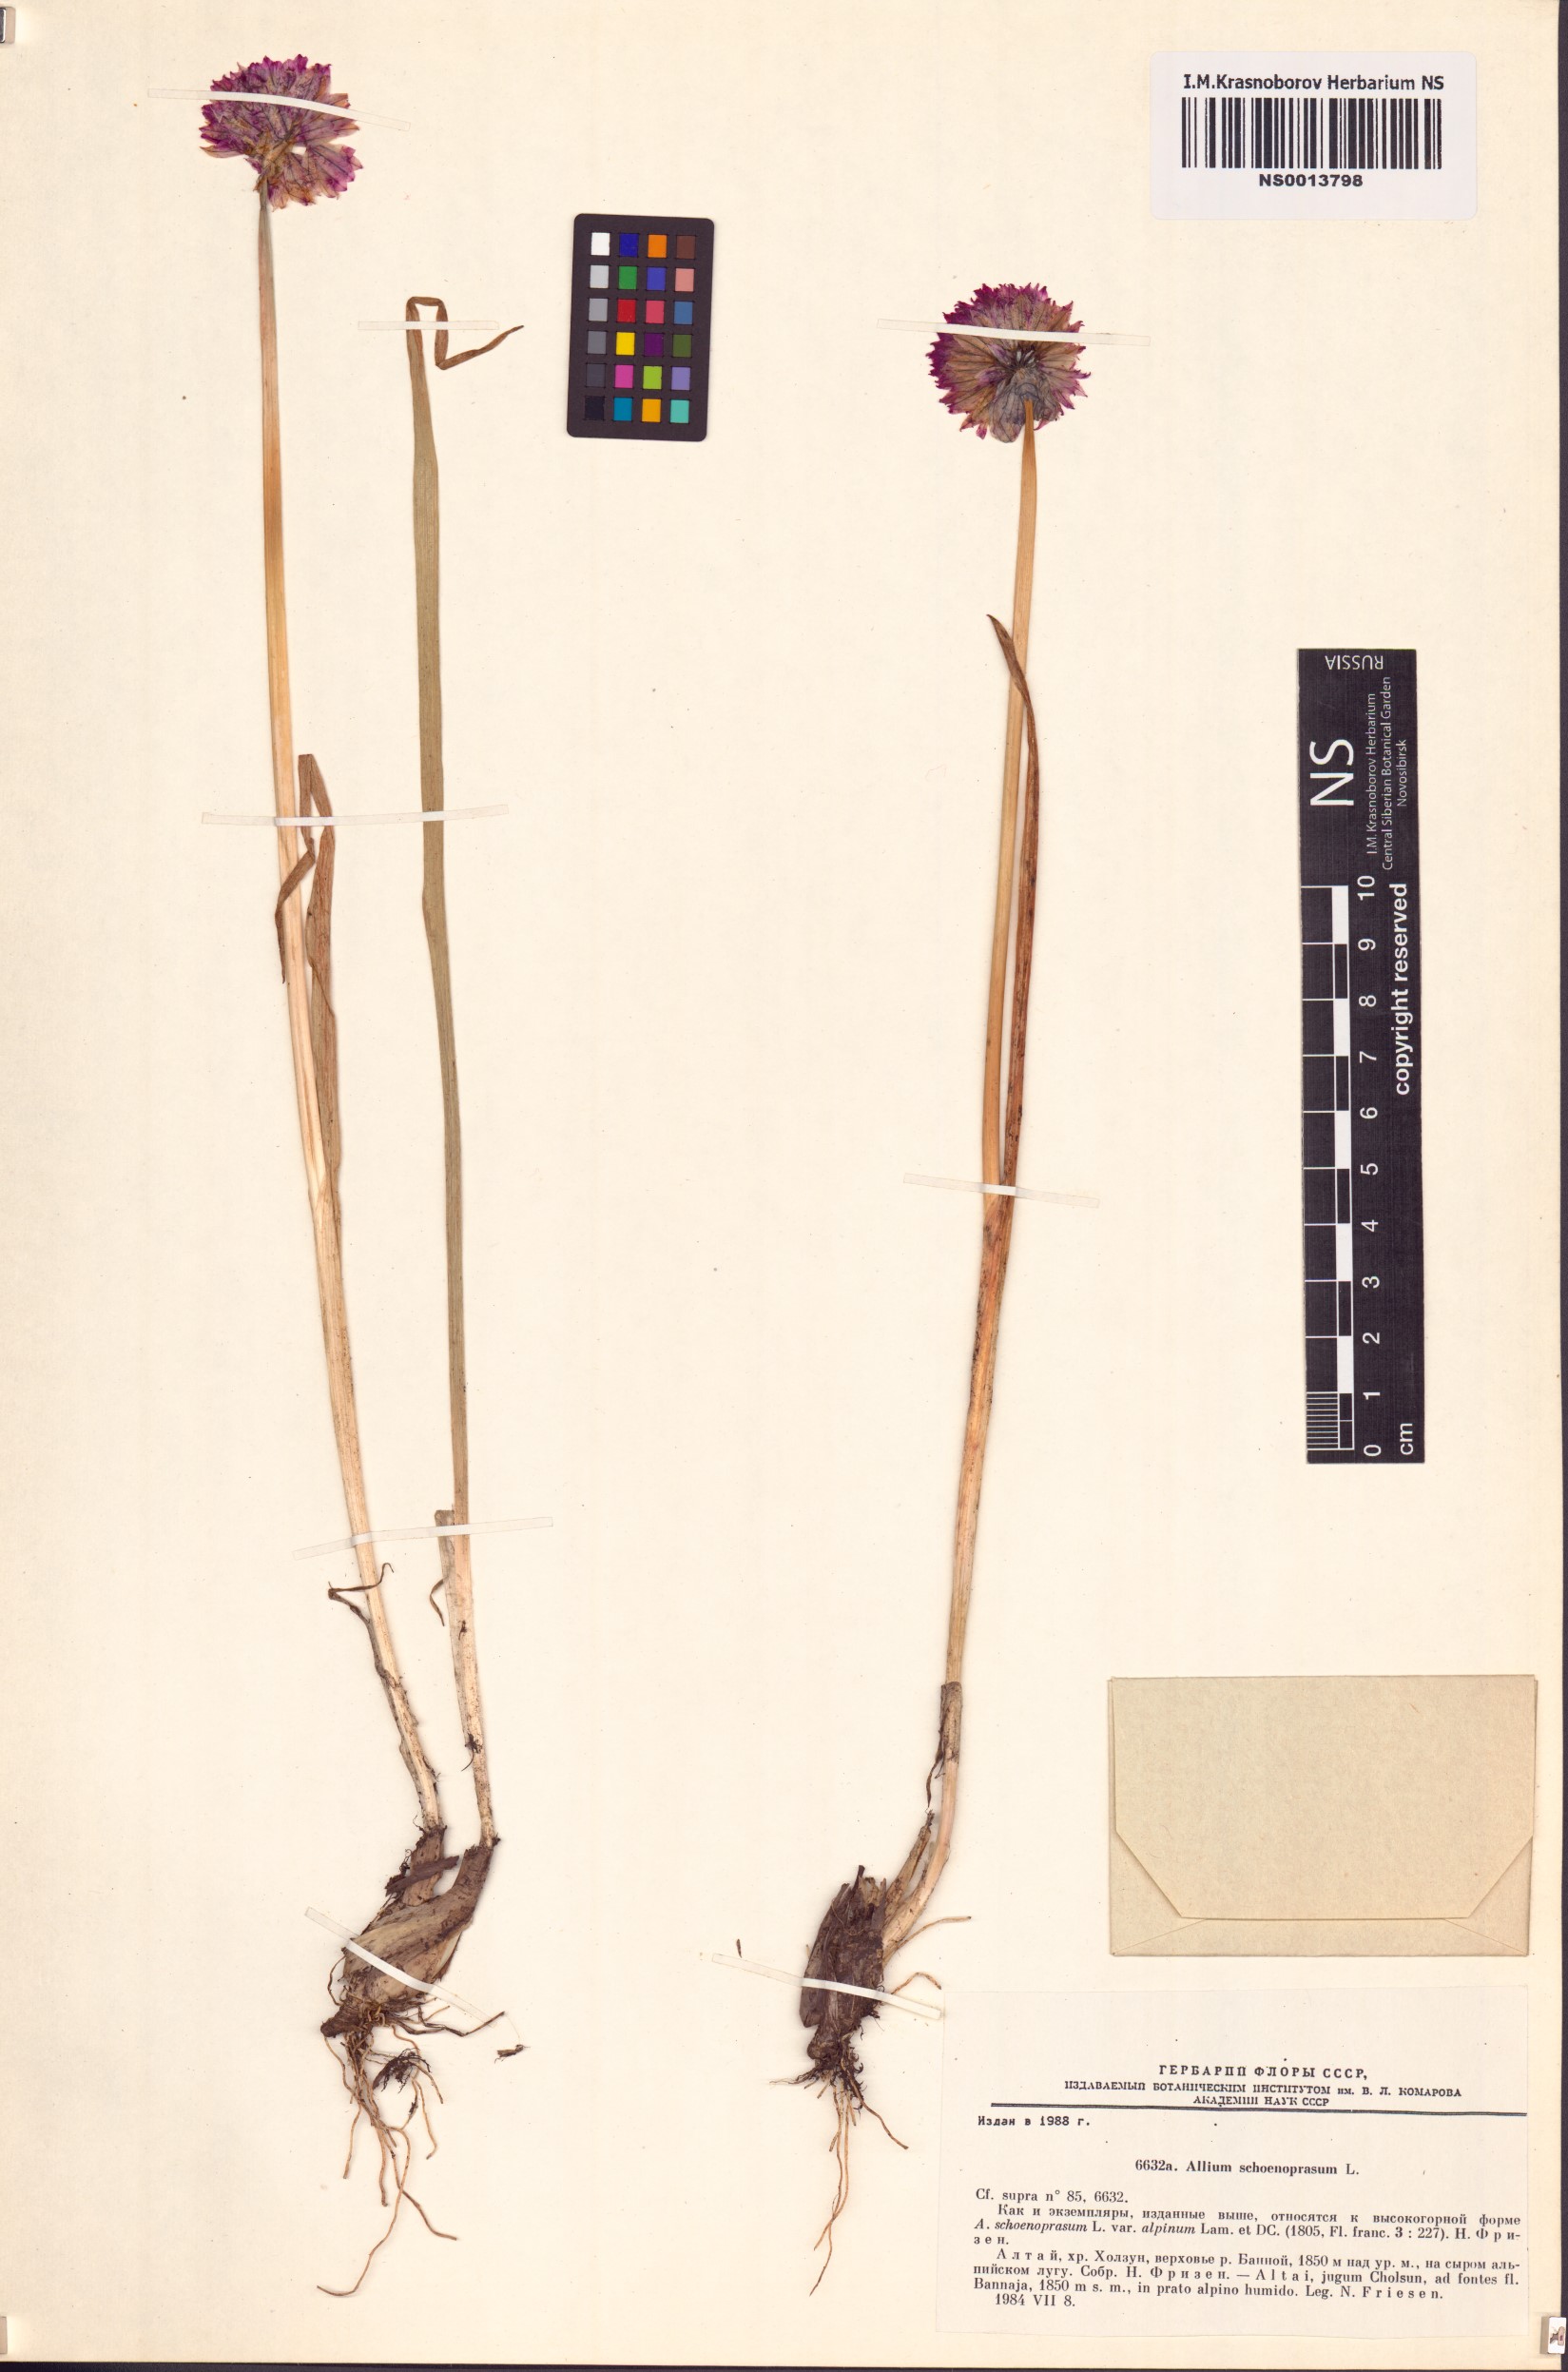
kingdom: Plantae
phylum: Tracheophyta
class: Liliopsida
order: Asparagales
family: Amaryllidaceae
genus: Allium
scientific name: Allium schoenoprasum
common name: Chives
